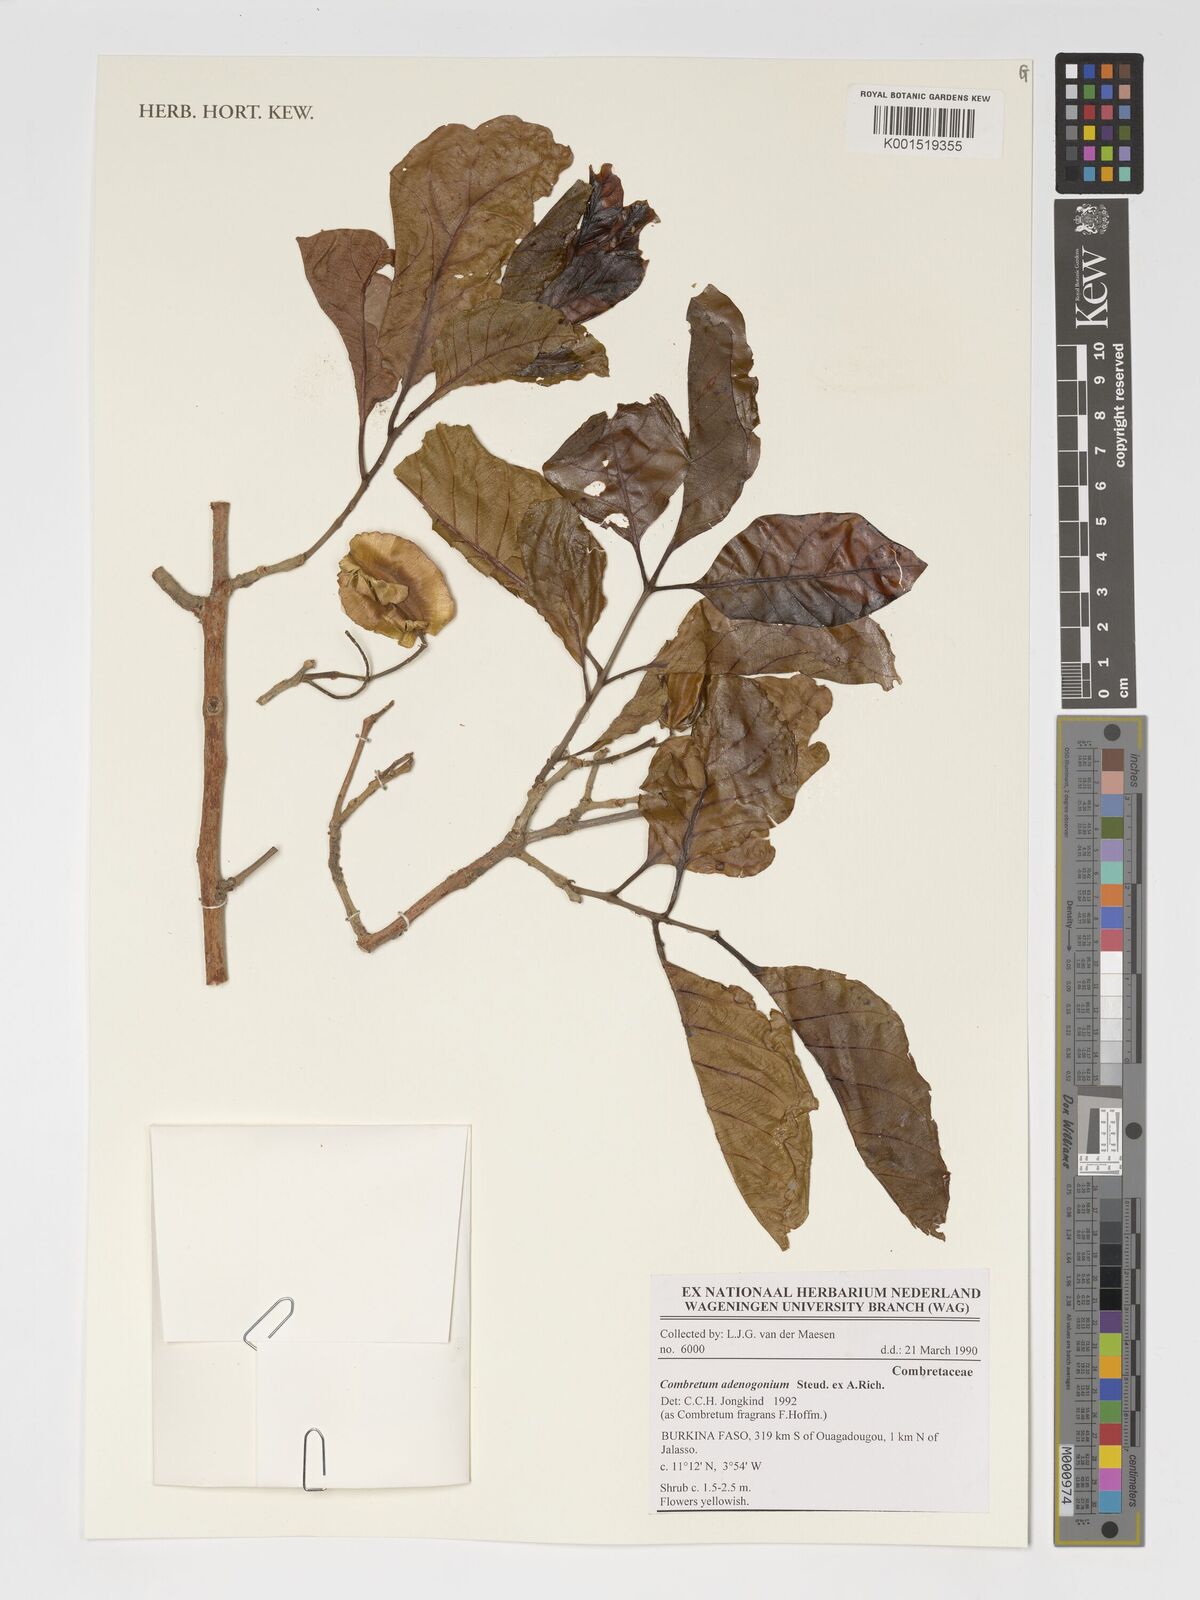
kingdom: Plantae
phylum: Tracheophyta
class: Magnoliopsida
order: Myrtales
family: Combretaceae
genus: Combretum
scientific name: Combretum adenogonium
